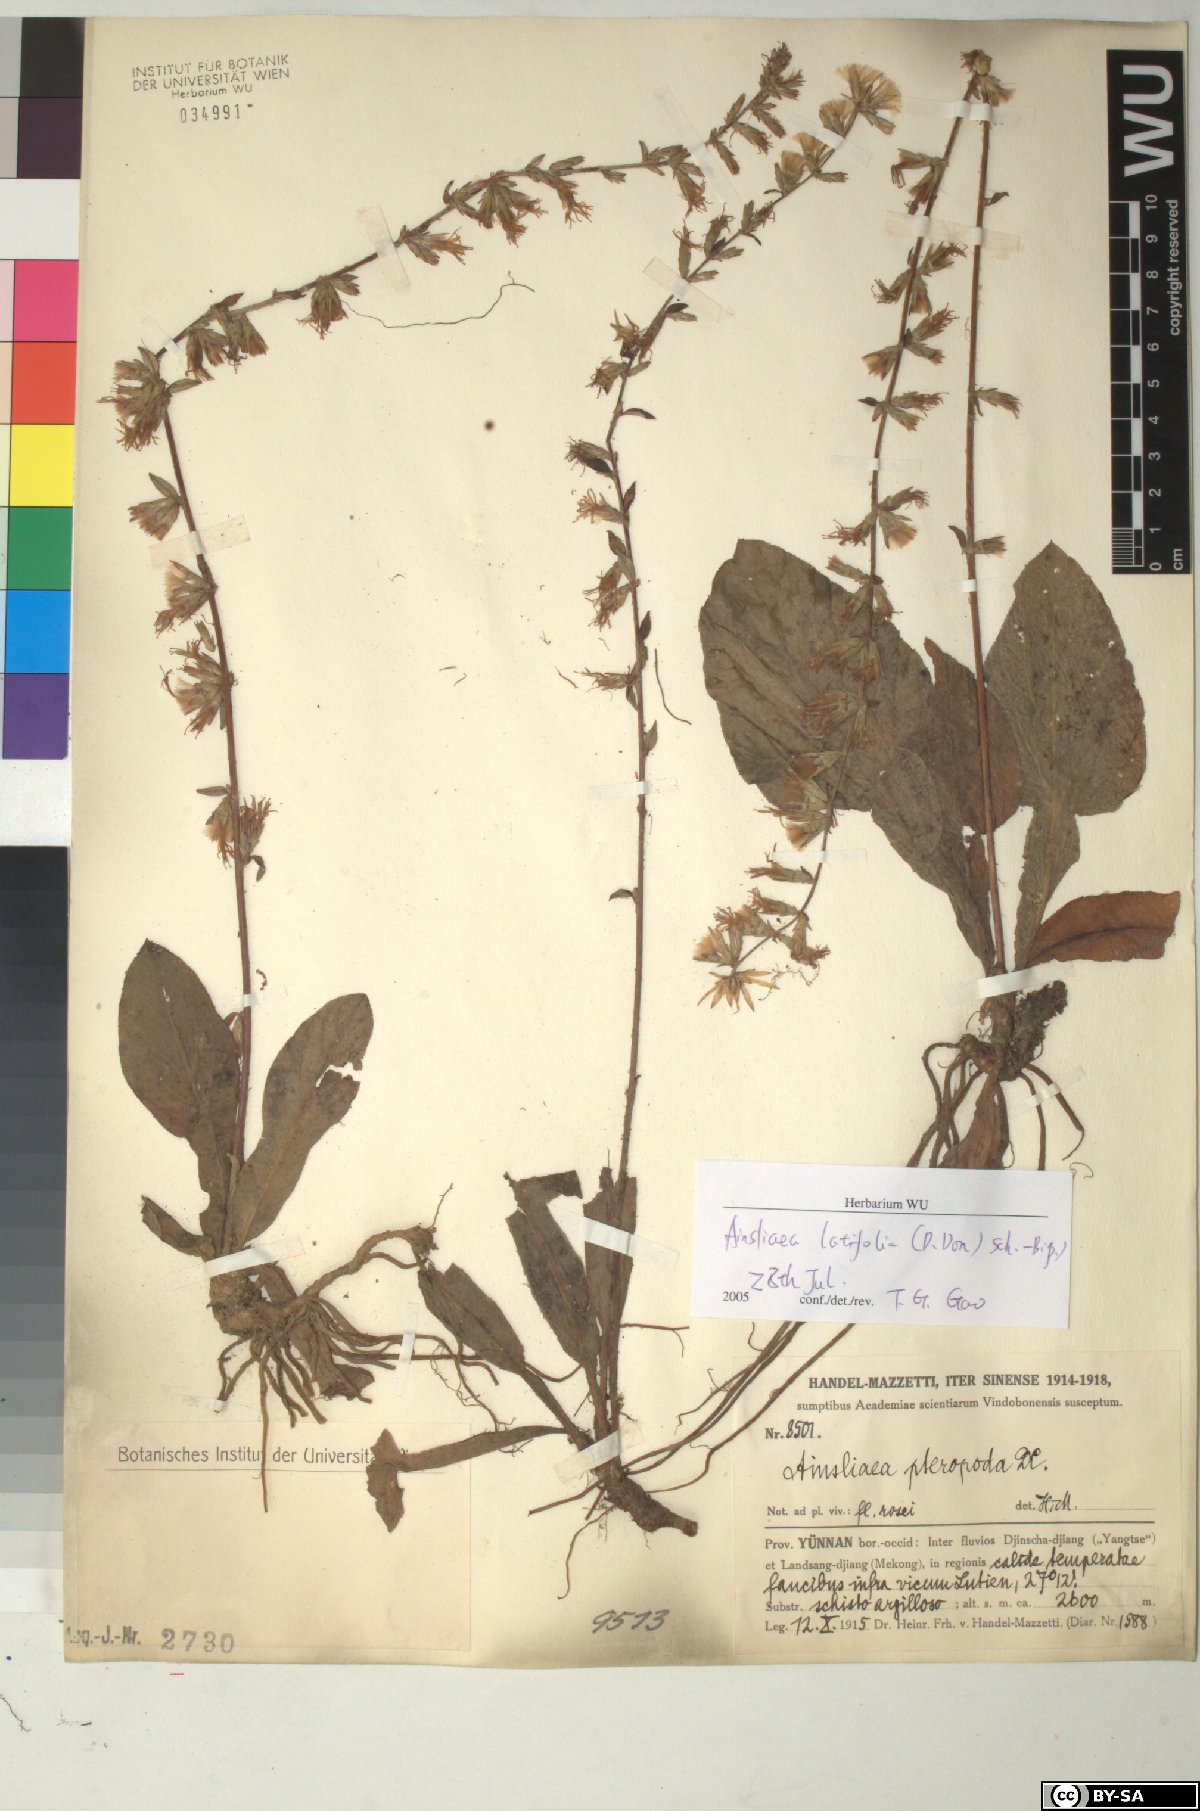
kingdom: Plantae
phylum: Tracheophyta
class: Magnoliopsida
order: Asterales
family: Asteraceae
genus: Ainsliaea
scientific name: Ainsliaea latifolia
